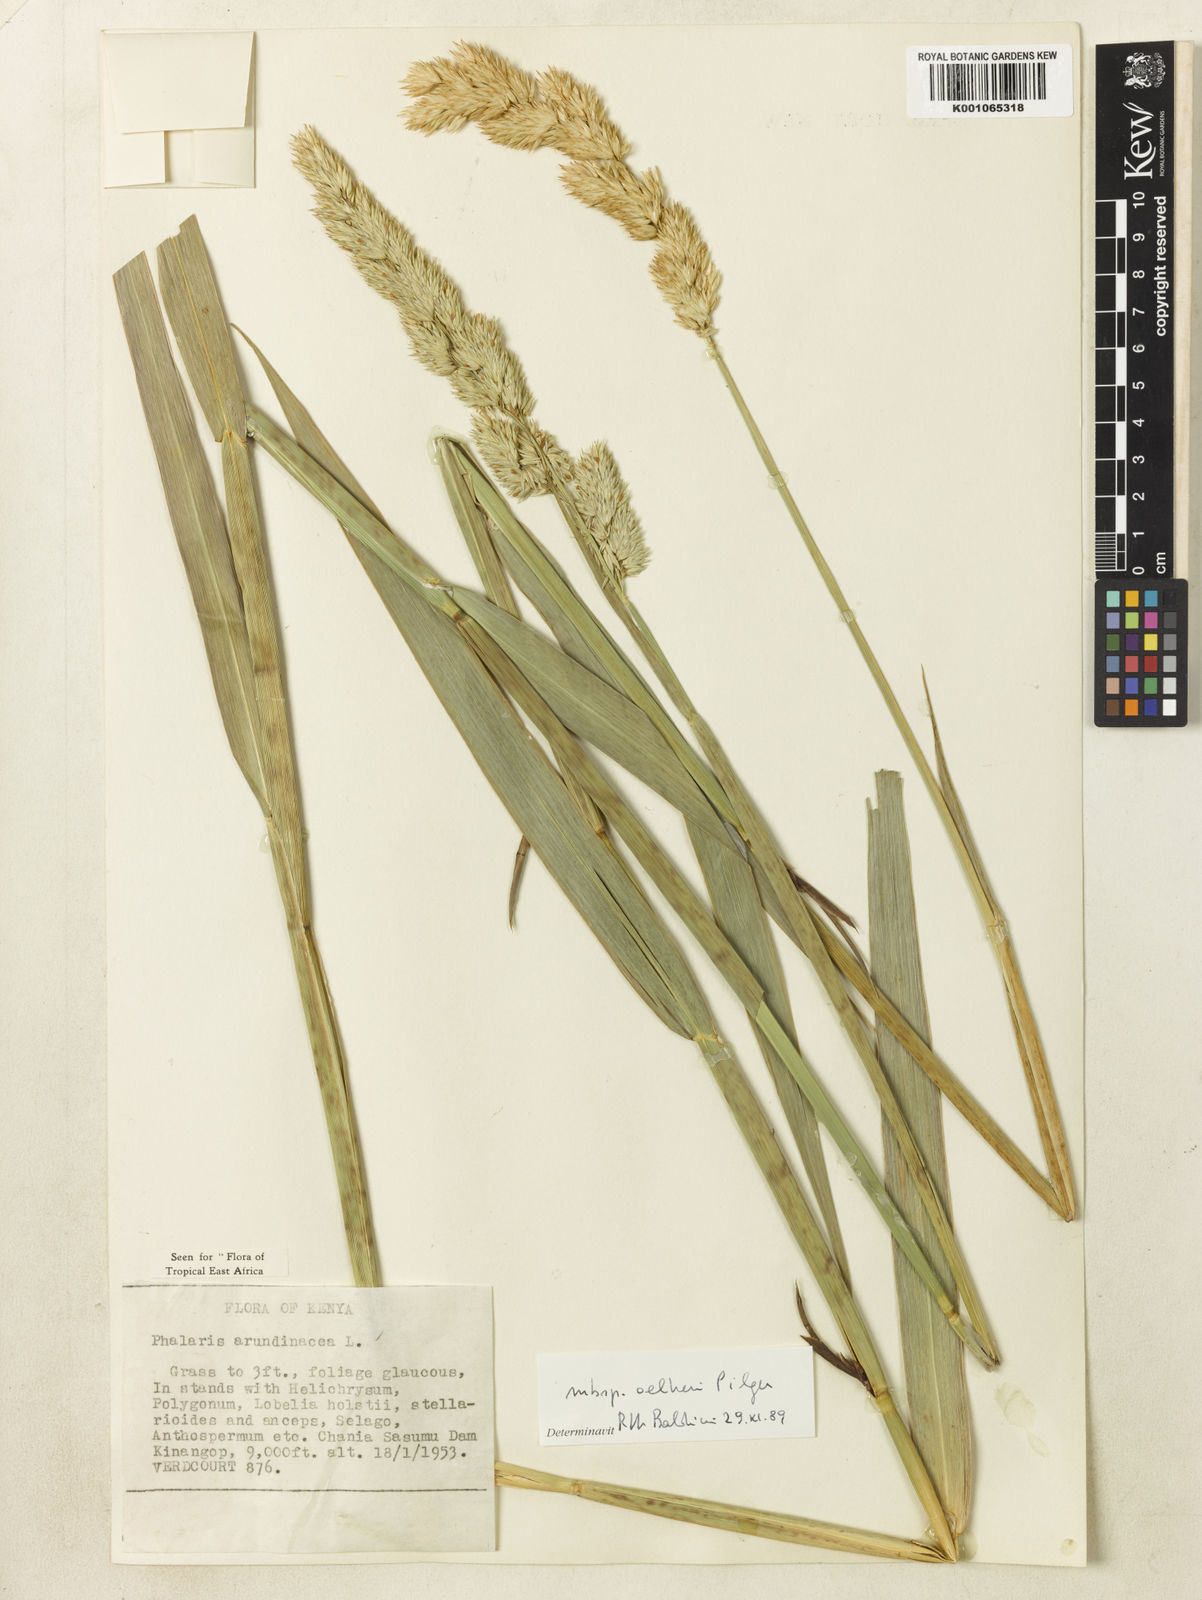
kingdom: Plantae
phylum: Tracheophyta
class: Liliopsida
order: Poales
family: Poaceae
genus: Phalaris
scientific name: Phalaris arundinacea
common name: Reed canary-grass
